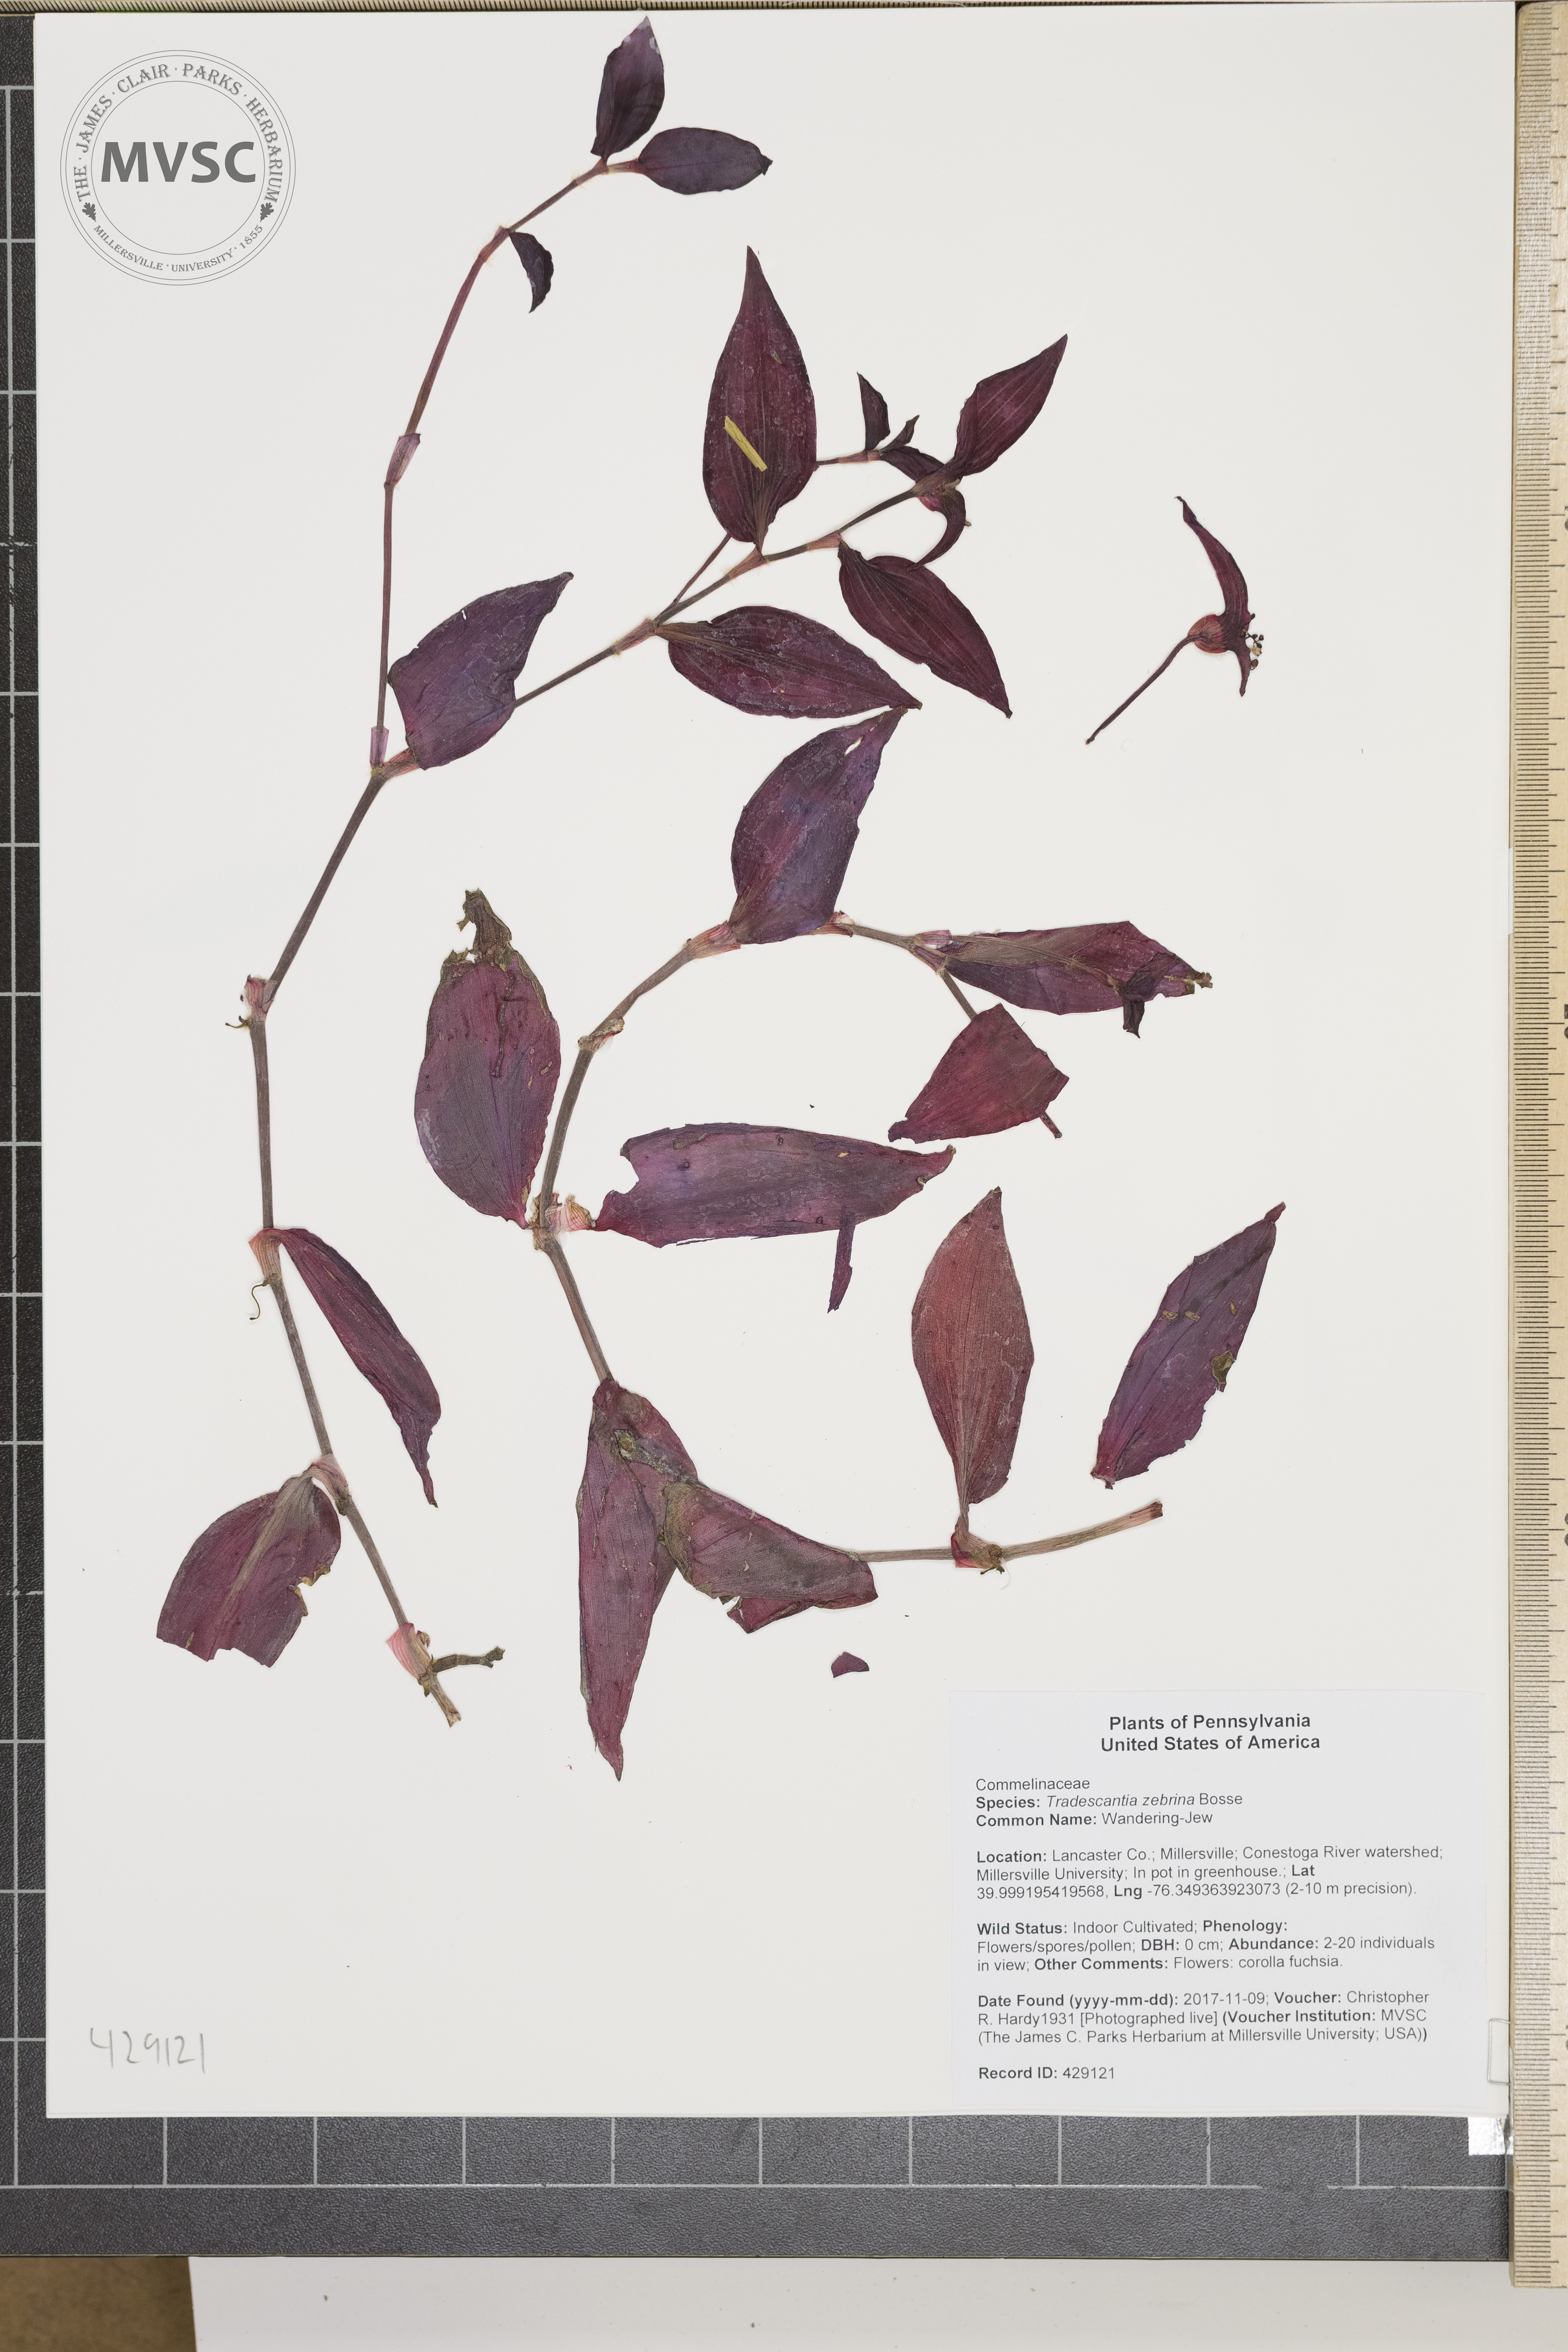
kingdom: Plantae
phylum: Tracheophyta
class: Liliopsida
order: Commelinales
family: Commelinaceae
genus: Tradescantia
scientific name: Tradescantia zebrina
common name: Wandering-Jew
